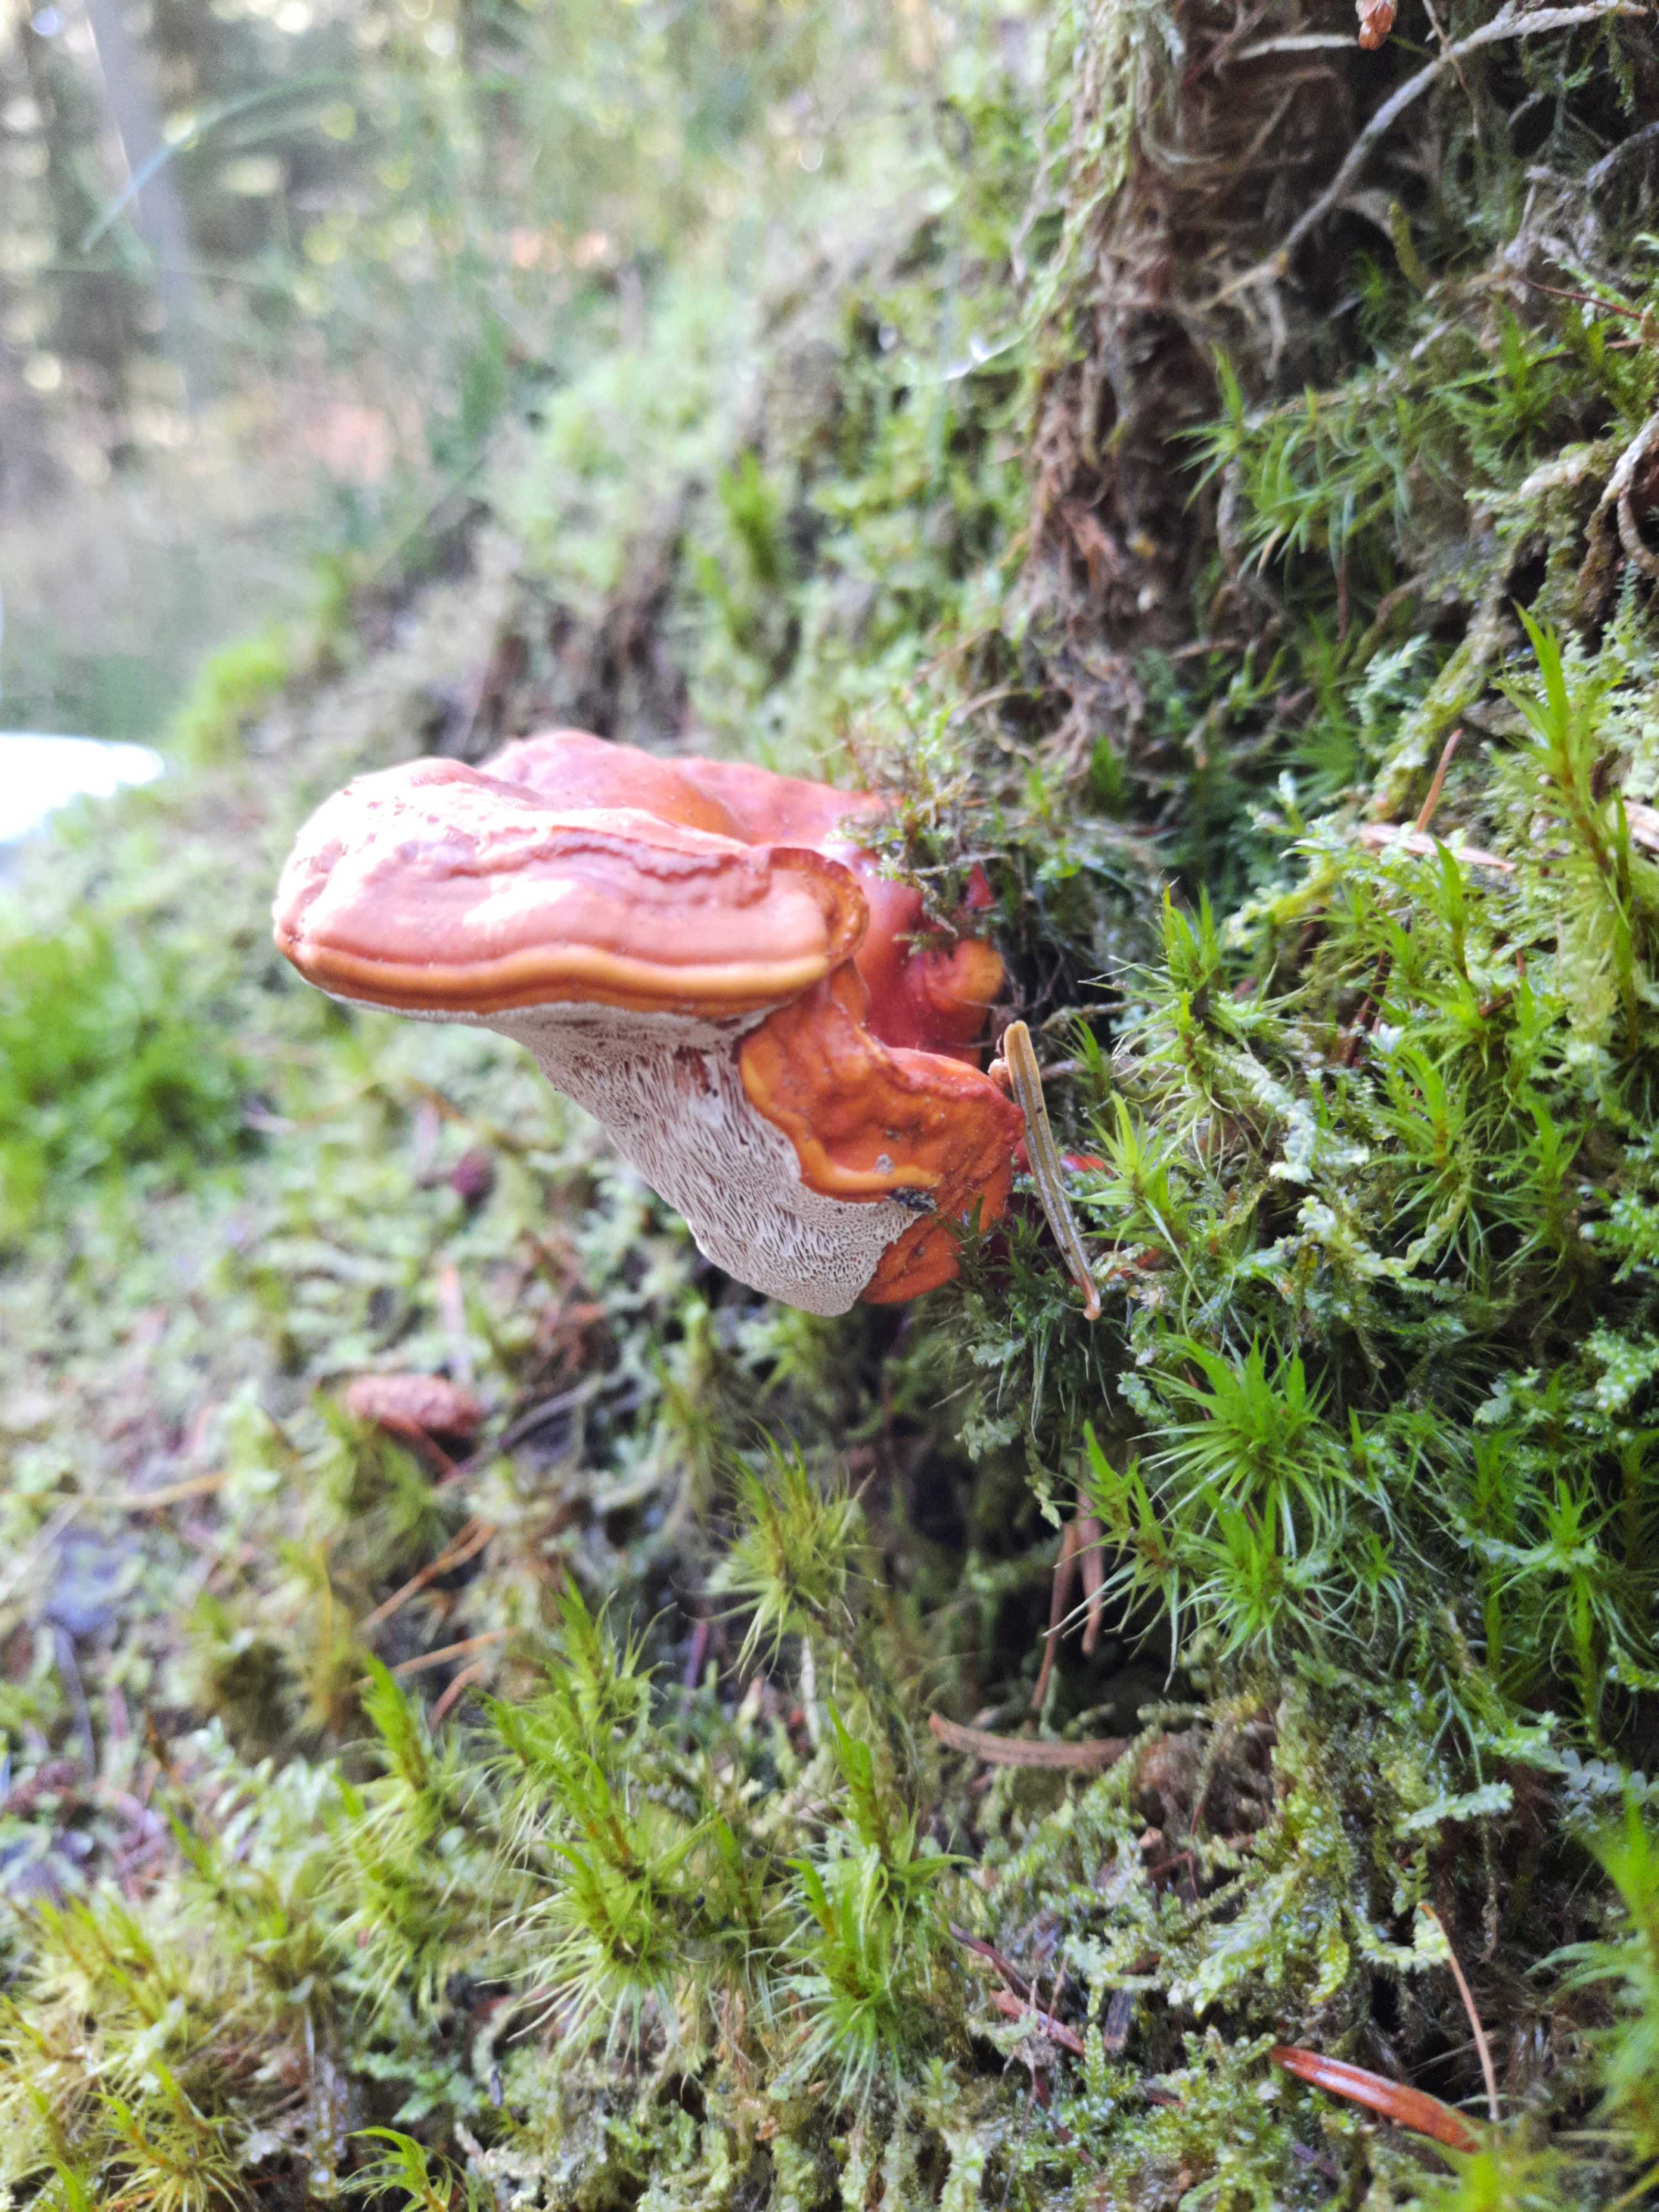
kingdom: Fungi
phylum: Basidiomycota
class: Agaricomycetes
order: Polyporales
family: Polyporaceae
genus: Ganoderma
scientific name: Ganoderma lucidum
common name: skinnende lakporesvamp
